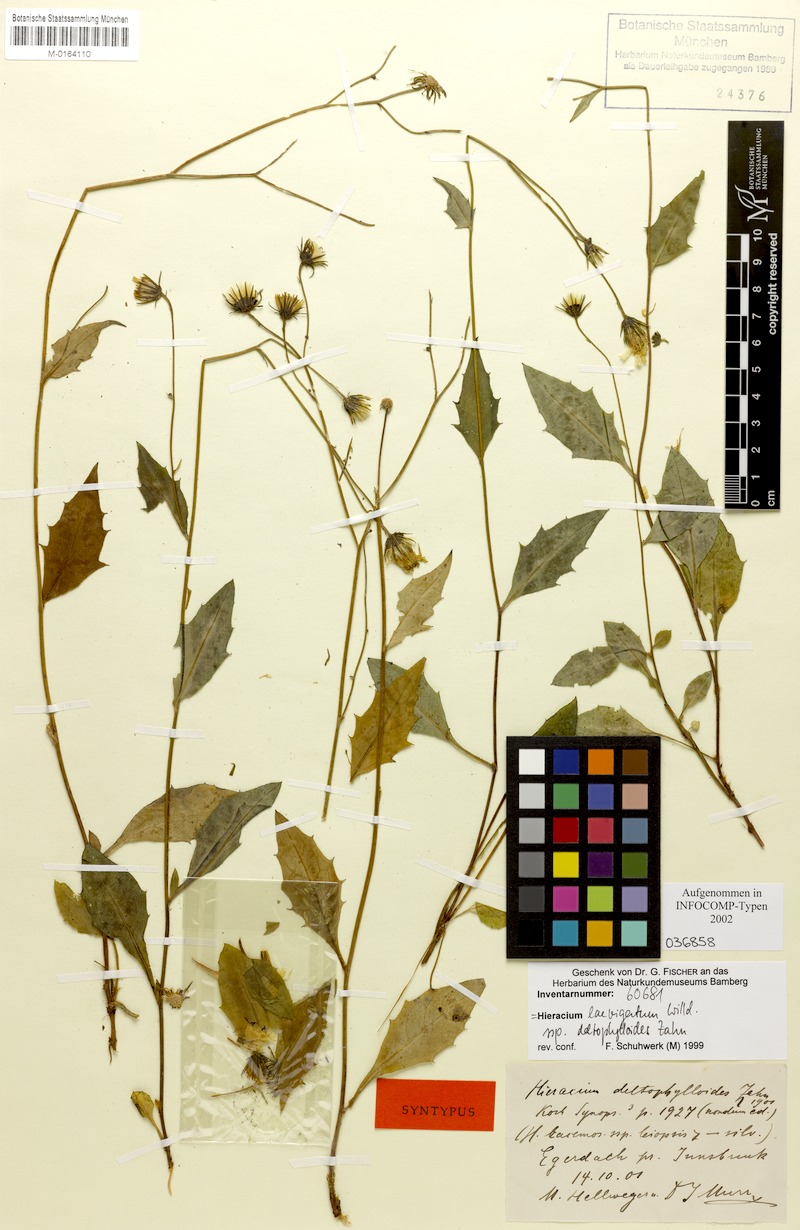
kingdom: Plantae
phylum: Tracheophyta
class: Magnoliopsida
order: Asterales
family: Asteraceae
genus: Hieracium
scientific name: Hieracium laevigatum
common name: Smooth hawkweed
